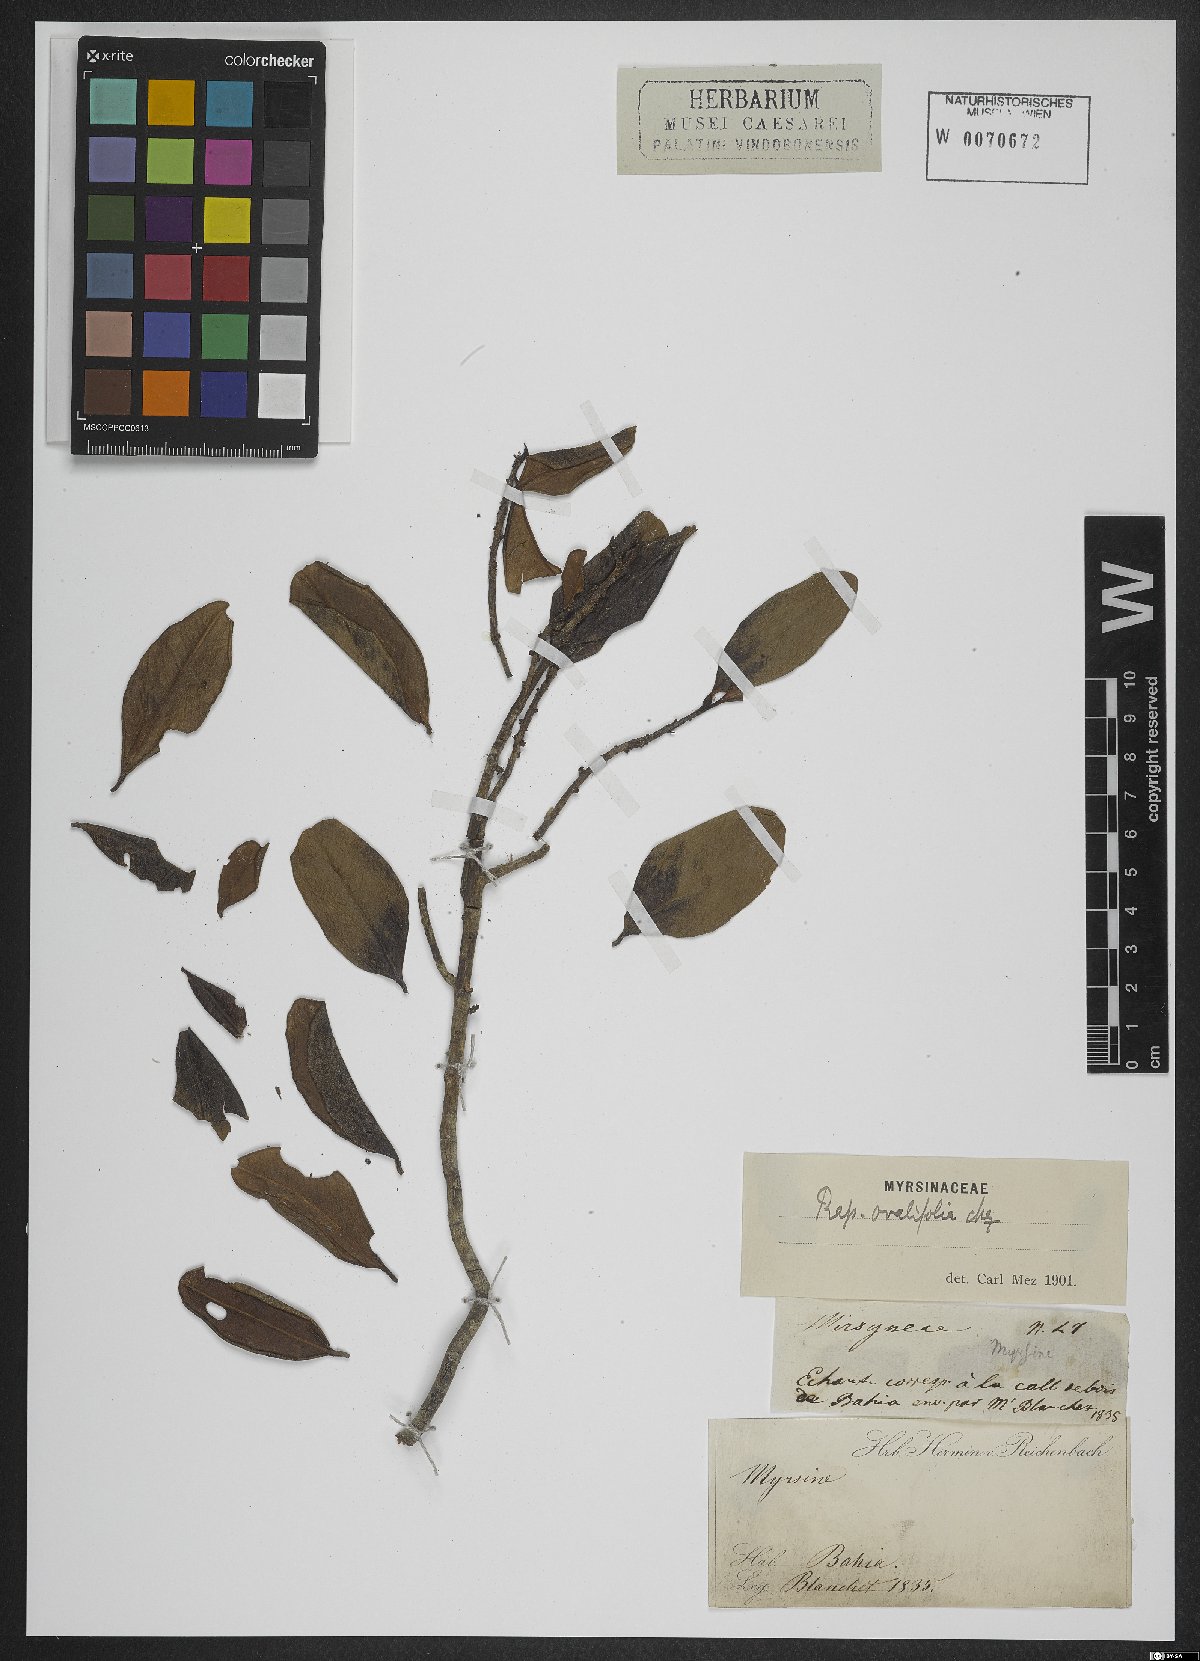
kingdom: Plantae
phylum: Tracheophyta
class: Magnoliopsida
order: Ericales
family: Primulaceae
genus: Myrsine
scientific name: Myrsine miquelii
